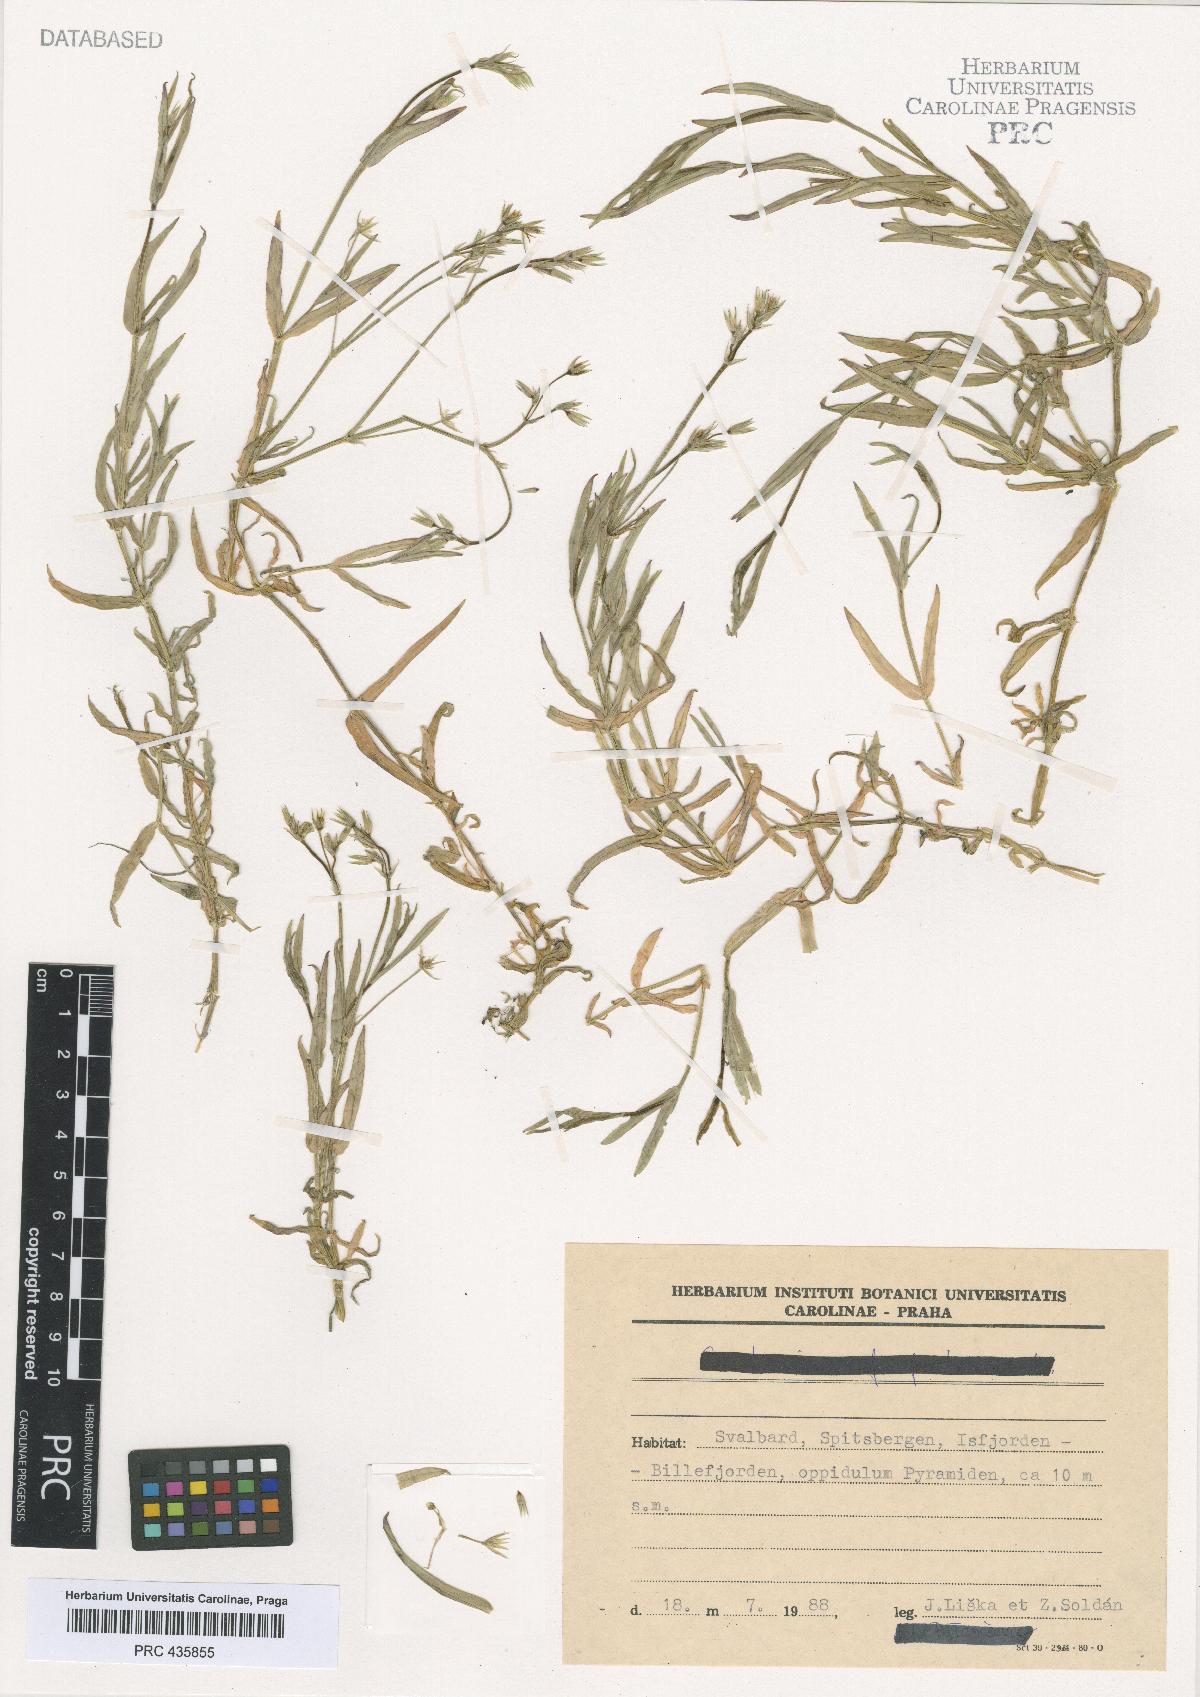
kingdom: Plantae
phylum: Tracheophyta
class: Magnoliopsida
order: Caryophyllales
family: Caryophyllaceae
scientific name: Caryophyllaceae
